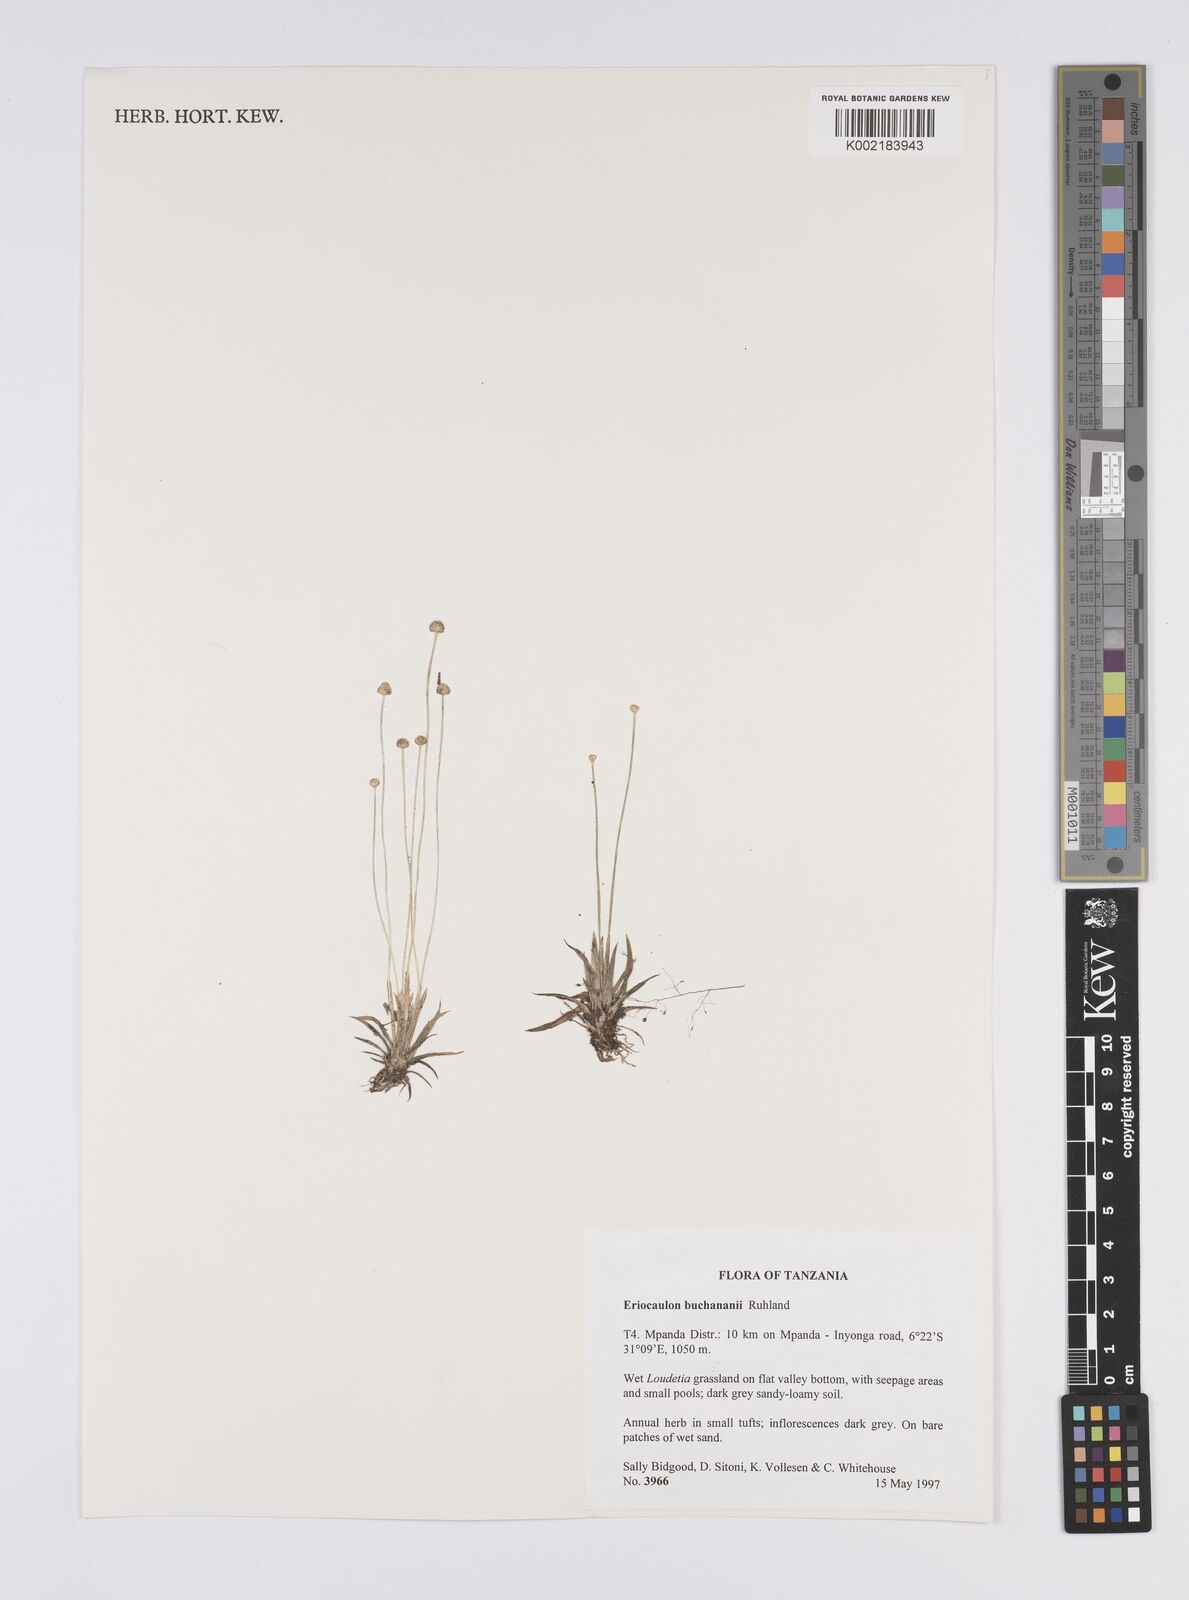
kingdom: Plantae
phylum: Tracheophyta
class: Liliopsida
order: Poales
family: Eriocaulaceae
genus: Eriocaulon
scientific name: Eriocaulon buchananii
